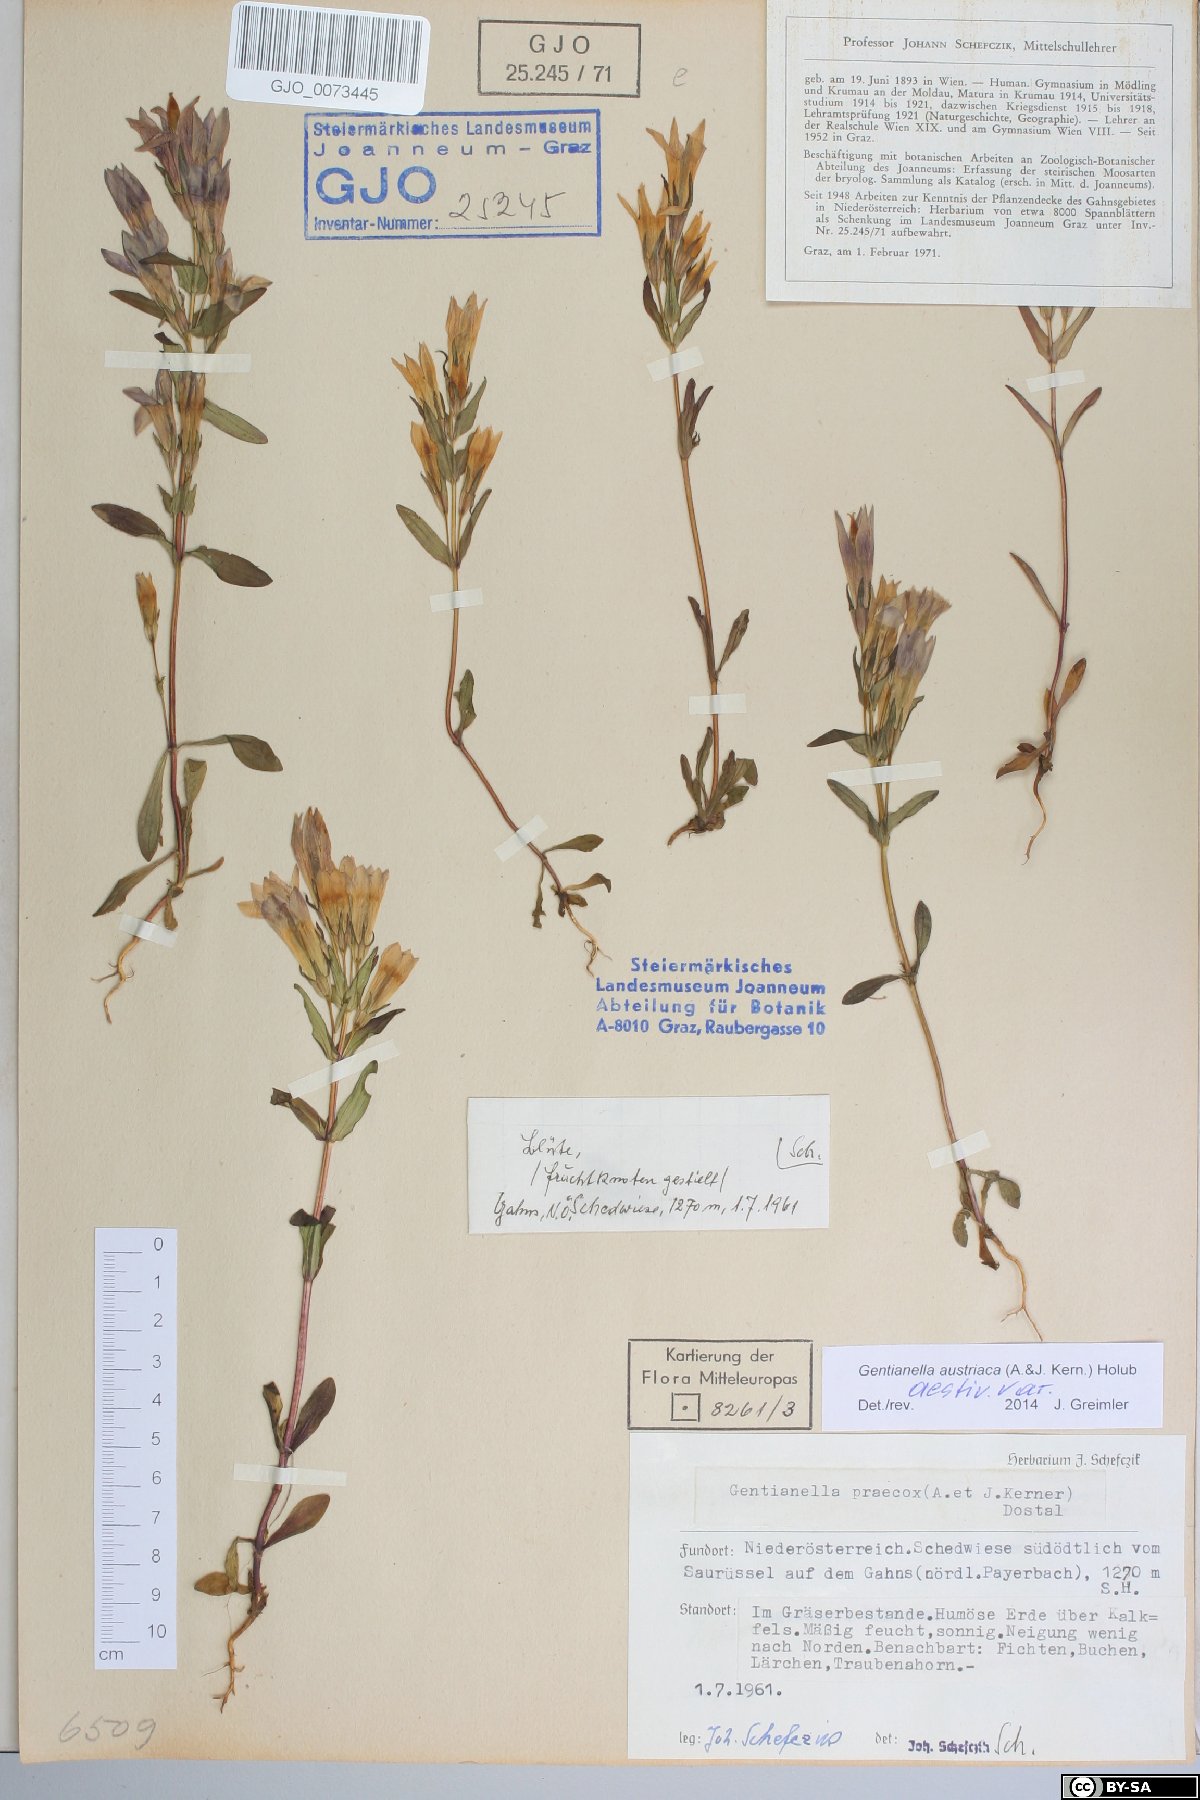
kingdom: Plantae
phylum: Tracheophyta
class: Magnoliopsida
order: Gentianales
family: Gentianaceae
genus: Gentianella
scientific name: Gentianella austriaca
